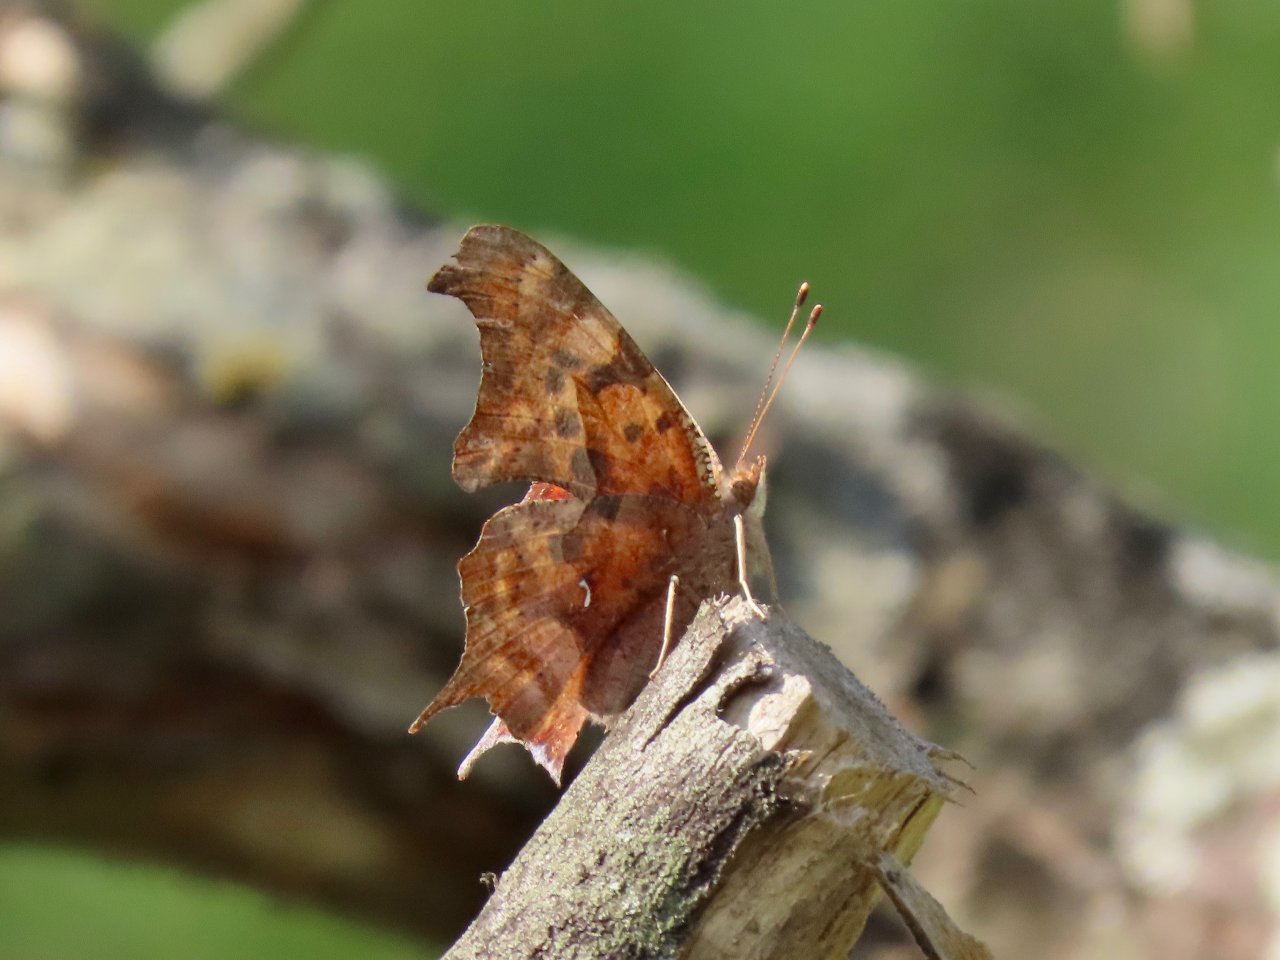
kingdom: Animalia
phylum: Arthropoda
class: Insecta
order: Lepidoptera
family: Nymphalidae
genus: Polygonia
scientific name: Polygonia interrogationis
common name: Question Mark
